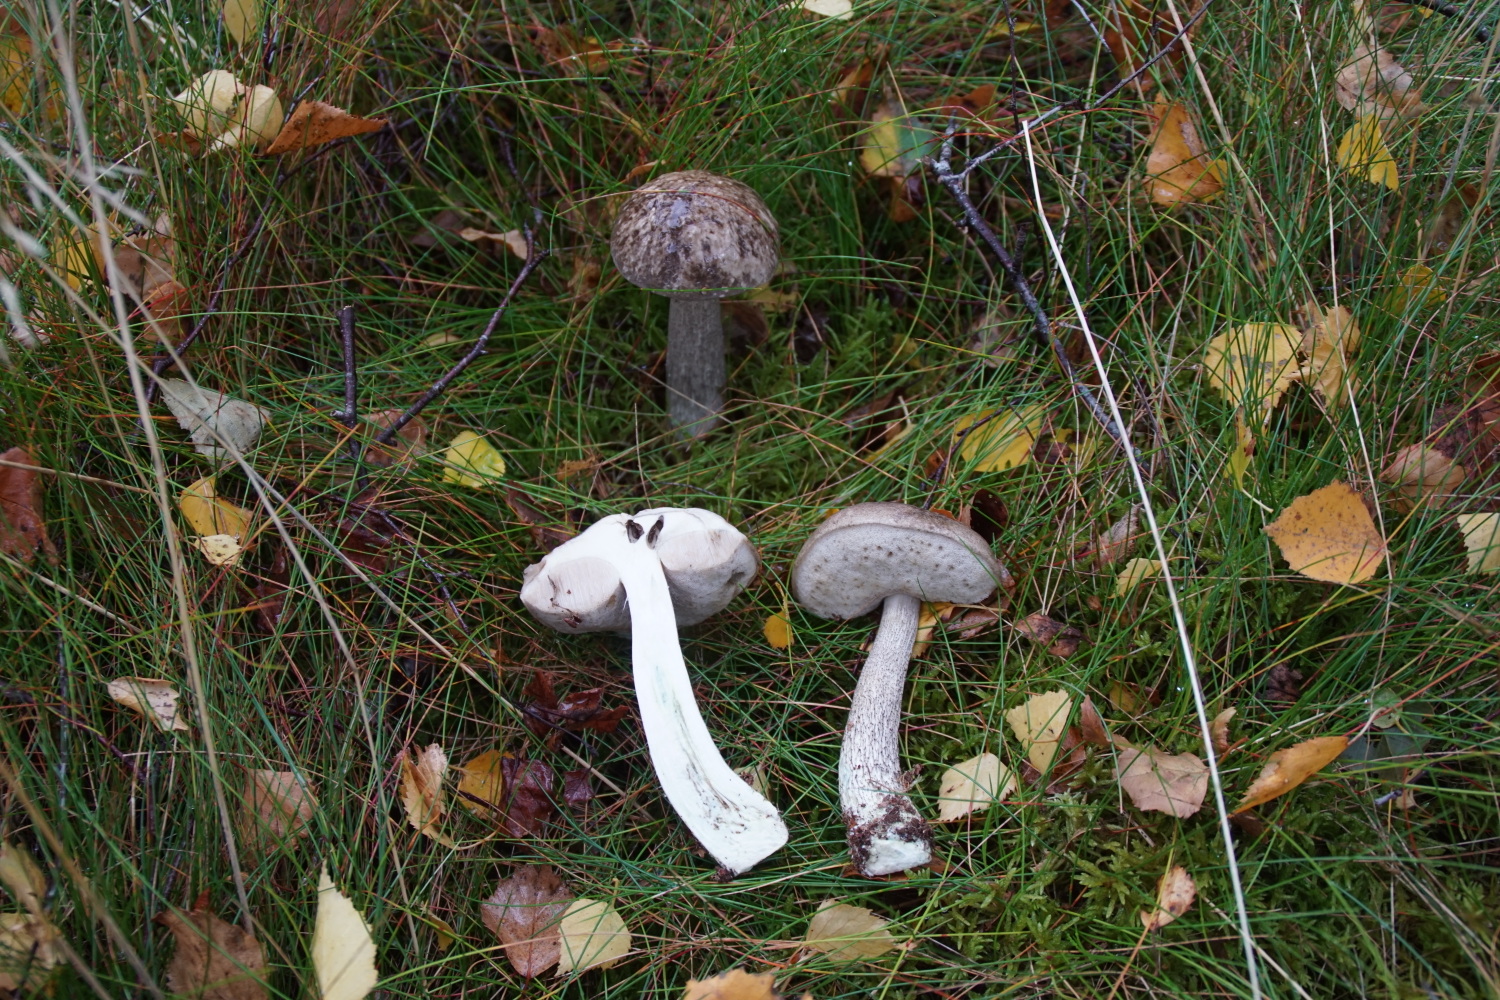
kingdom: Fungi
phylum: Basidiomycota
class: Agaricomycetes
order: Boletales
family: Boletaceae
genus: Leccinum
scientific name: Leccinum variicolor
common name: flammet skælrørhat
